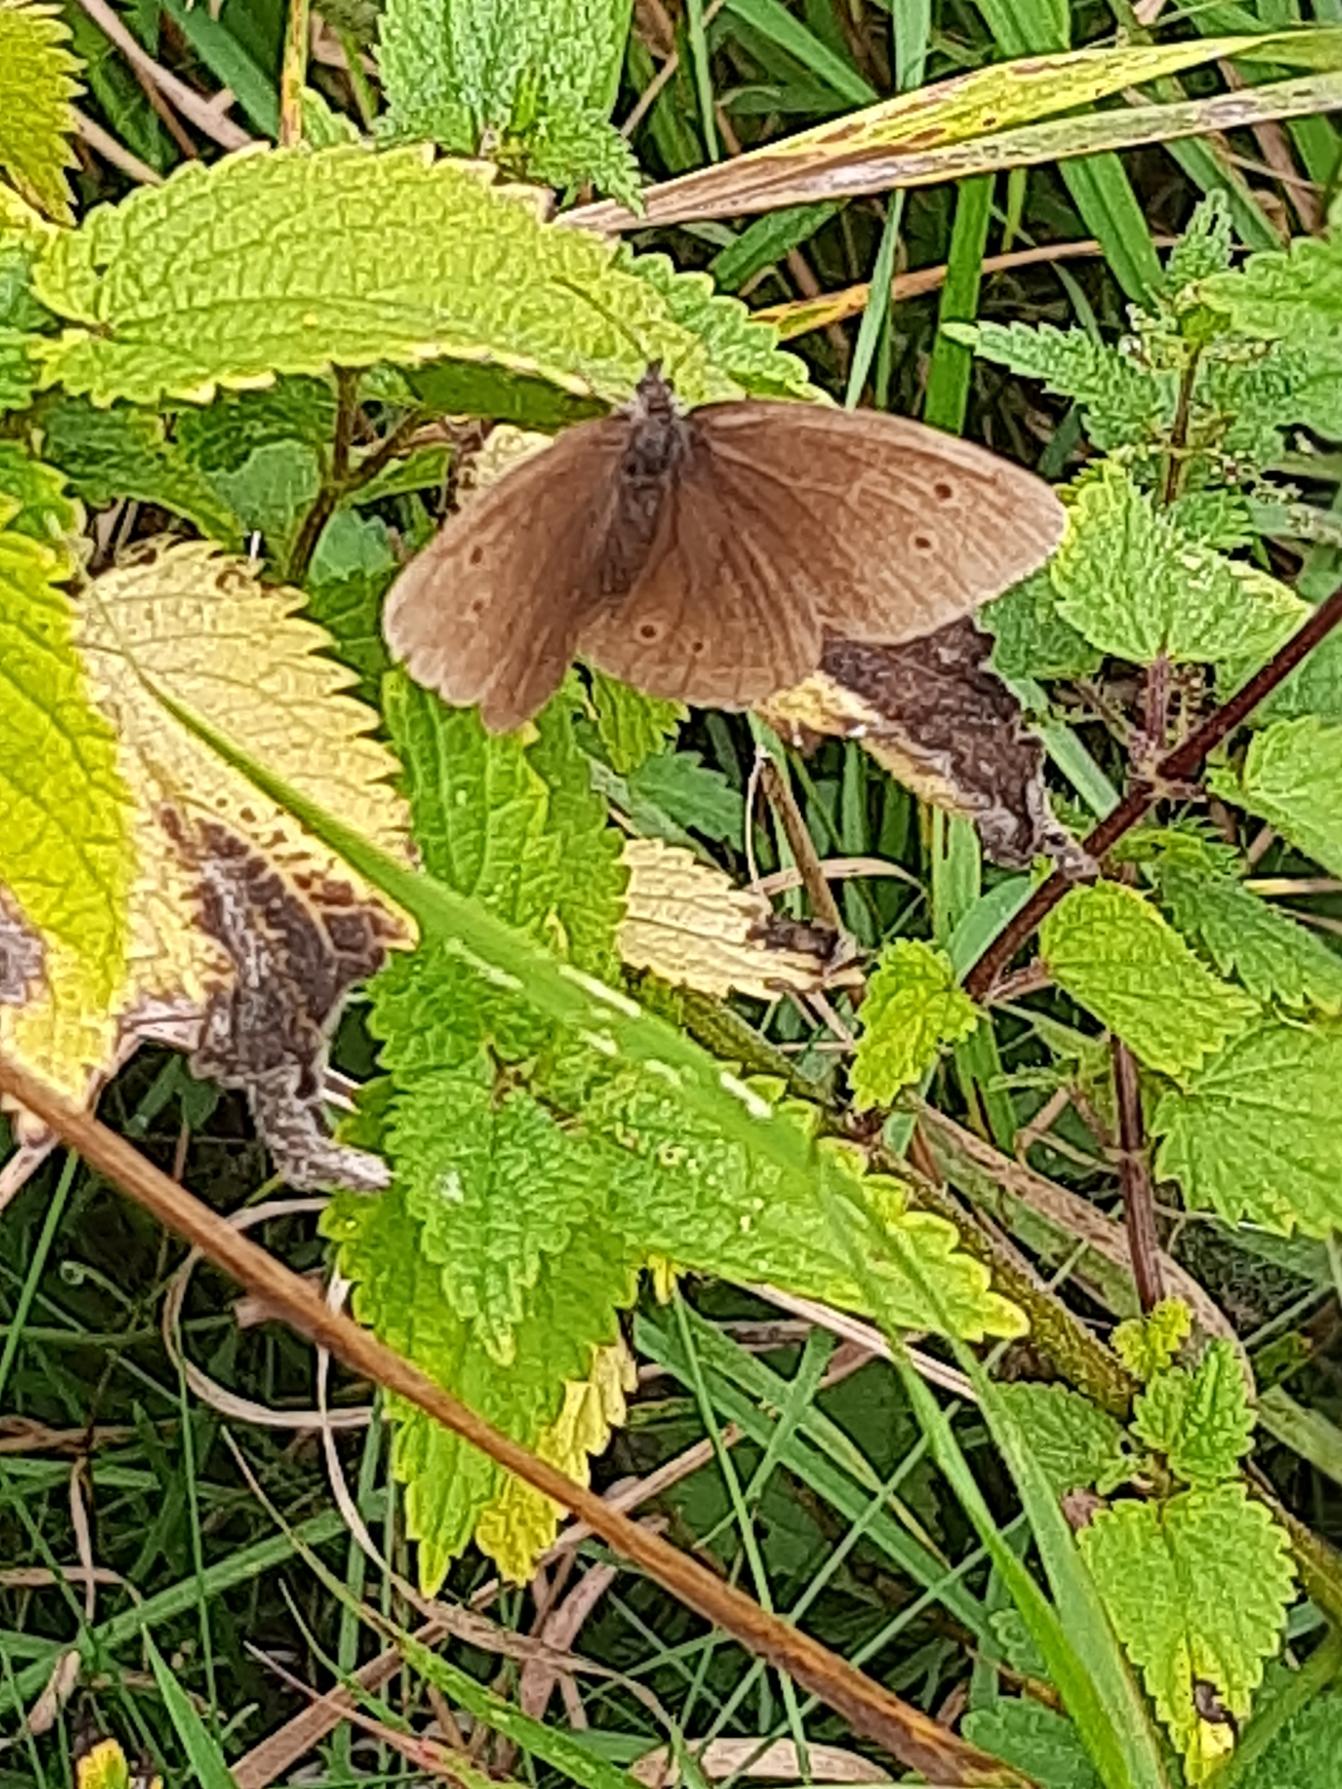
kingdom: Animalia
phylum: Arthropoda
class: Insecta
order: Lepidoptera
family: Nymphalidae
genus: Aphantopus
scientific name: Aphantopus hyperantus
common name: Engrandøje
